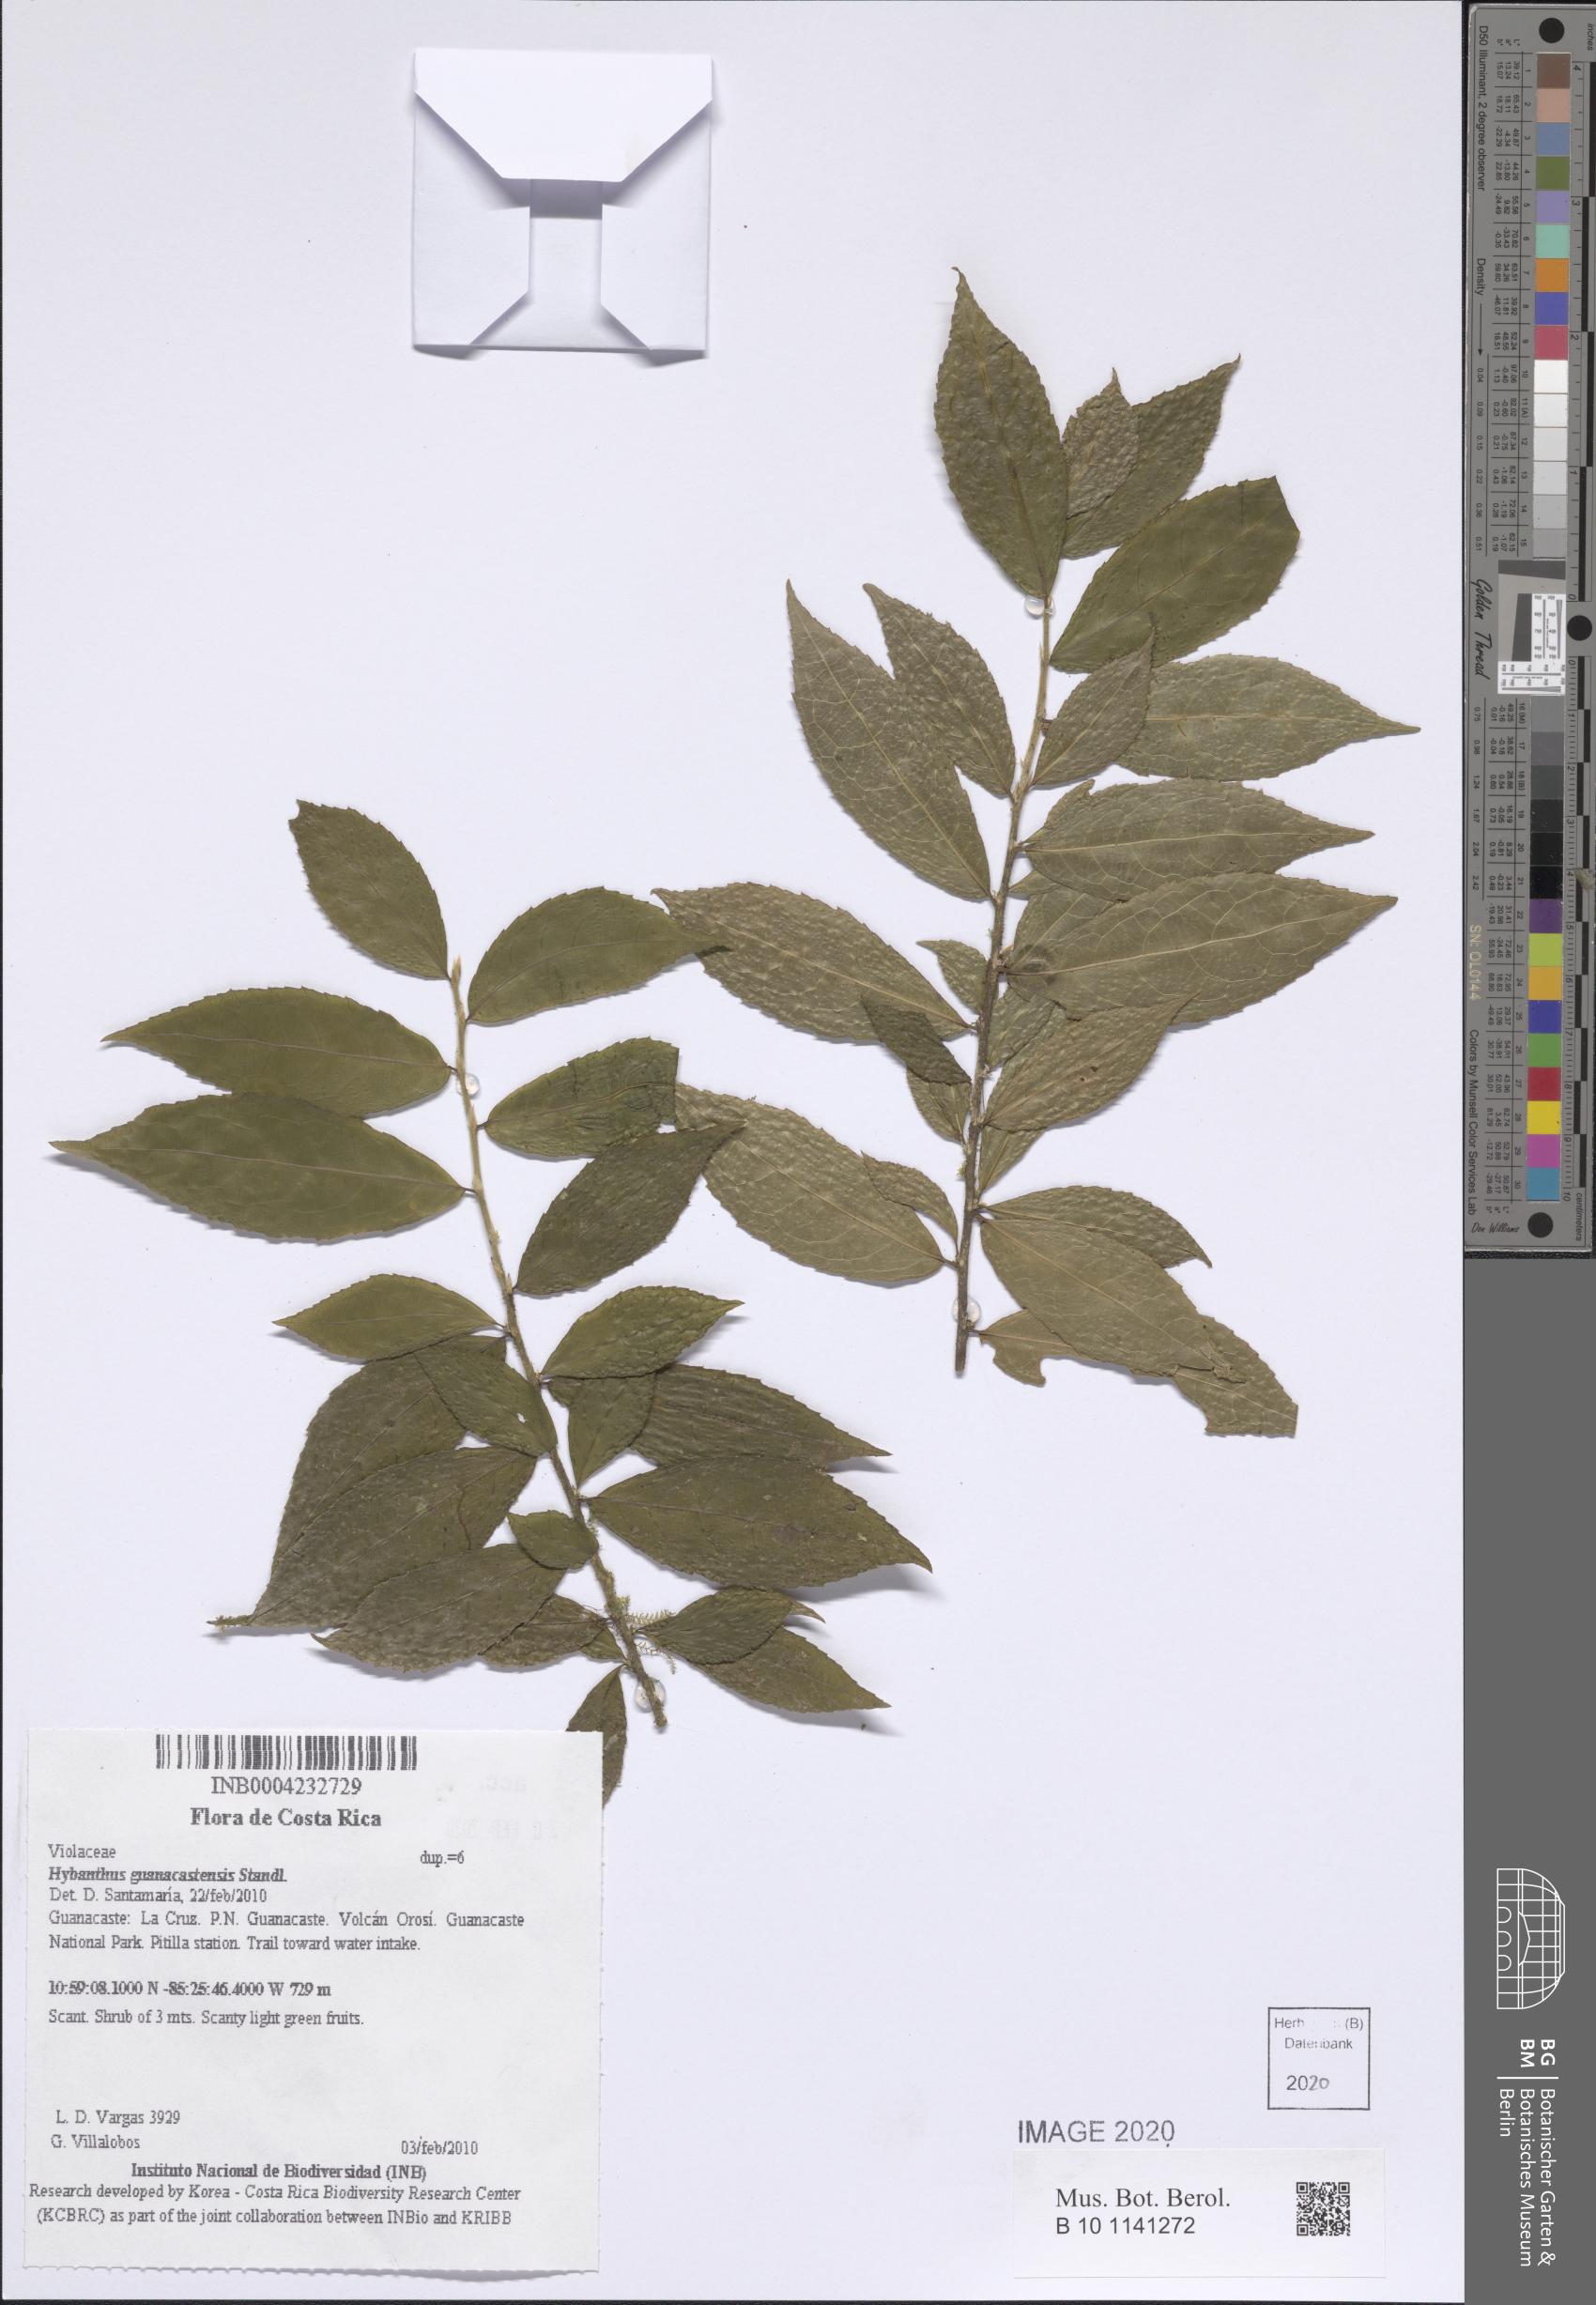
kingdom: Plantae
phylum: Tracheophyta
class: Magnoliopsida
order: Malpighiales
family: Violaceae
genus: Hybanthus
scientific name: Hybanthus guanacastensis
